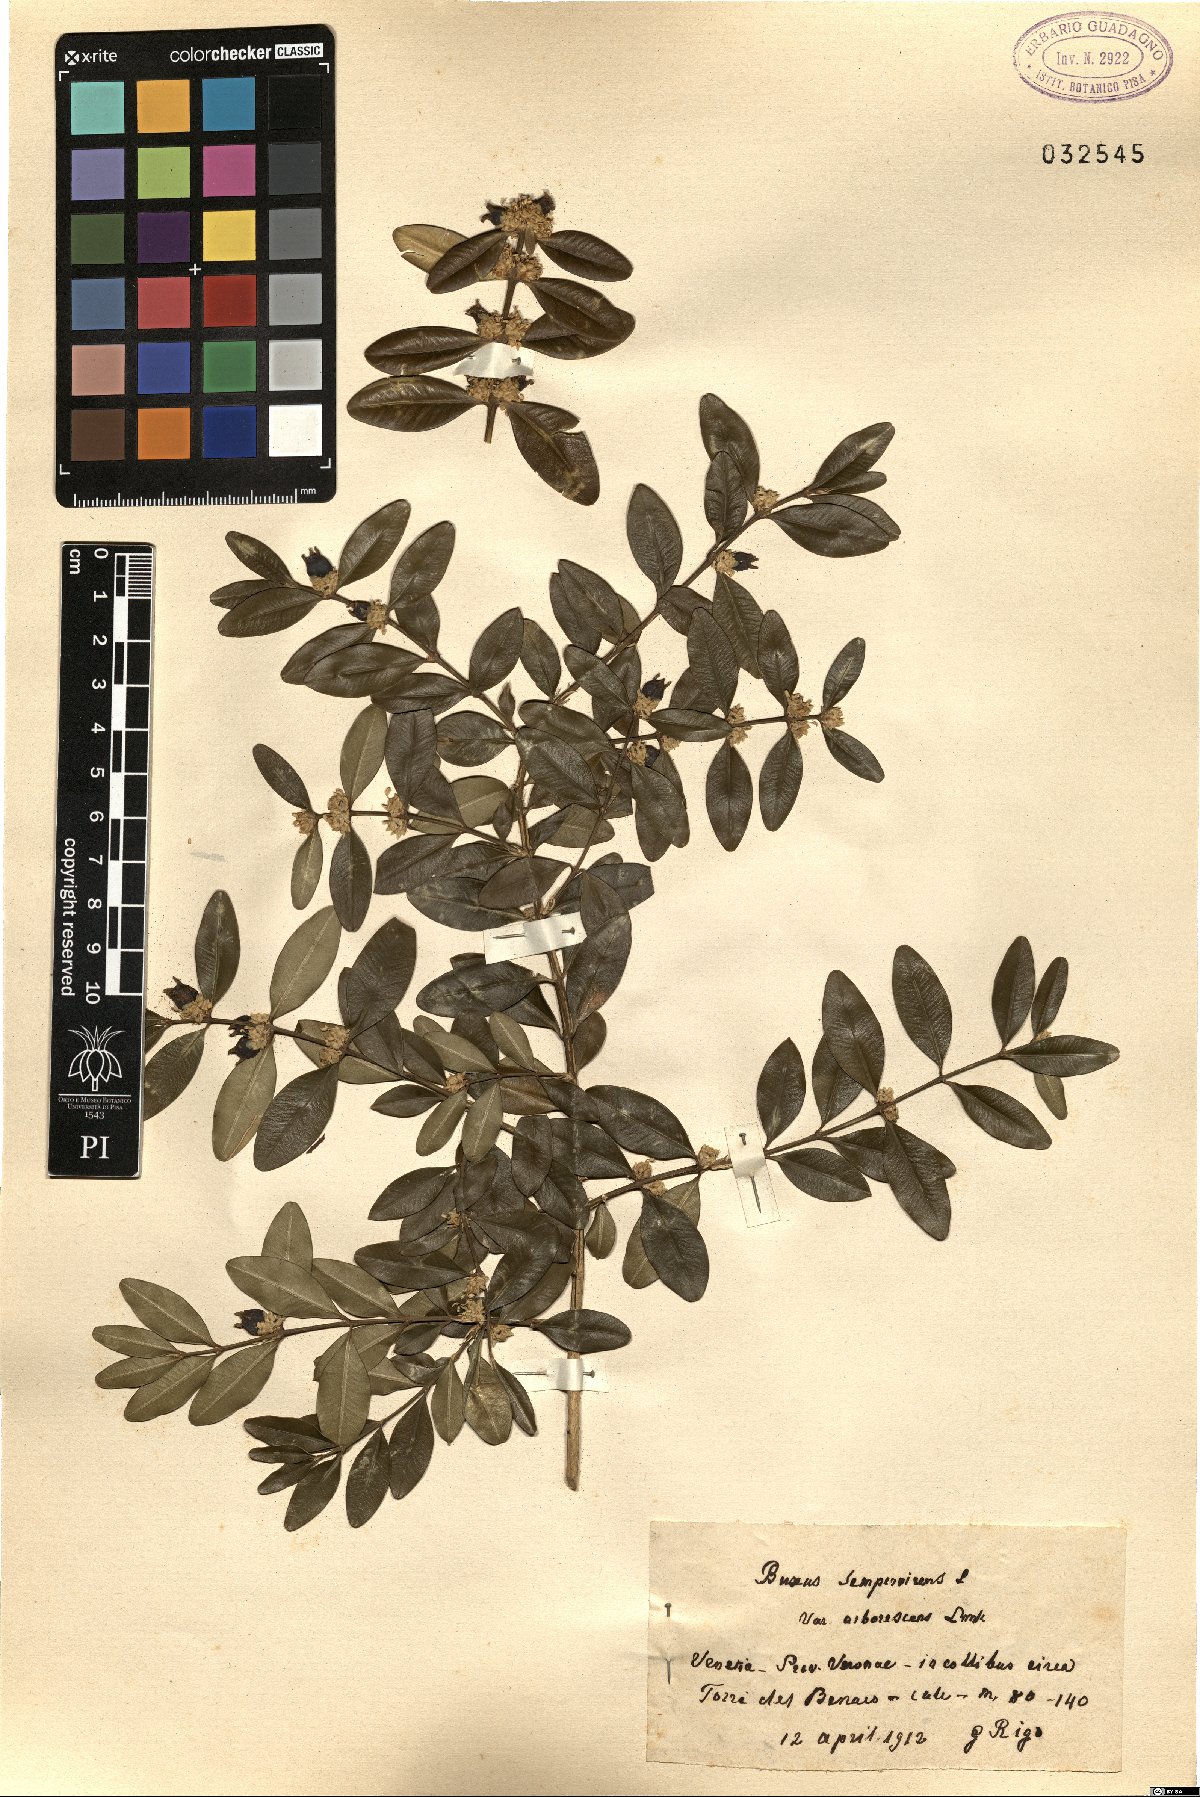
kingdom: Plantae
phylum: Tracheophyta
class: Magnoliopsida
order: Buxales
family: Buxaceae
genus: Buxus
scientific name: Buxus sempervirens
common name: Box
